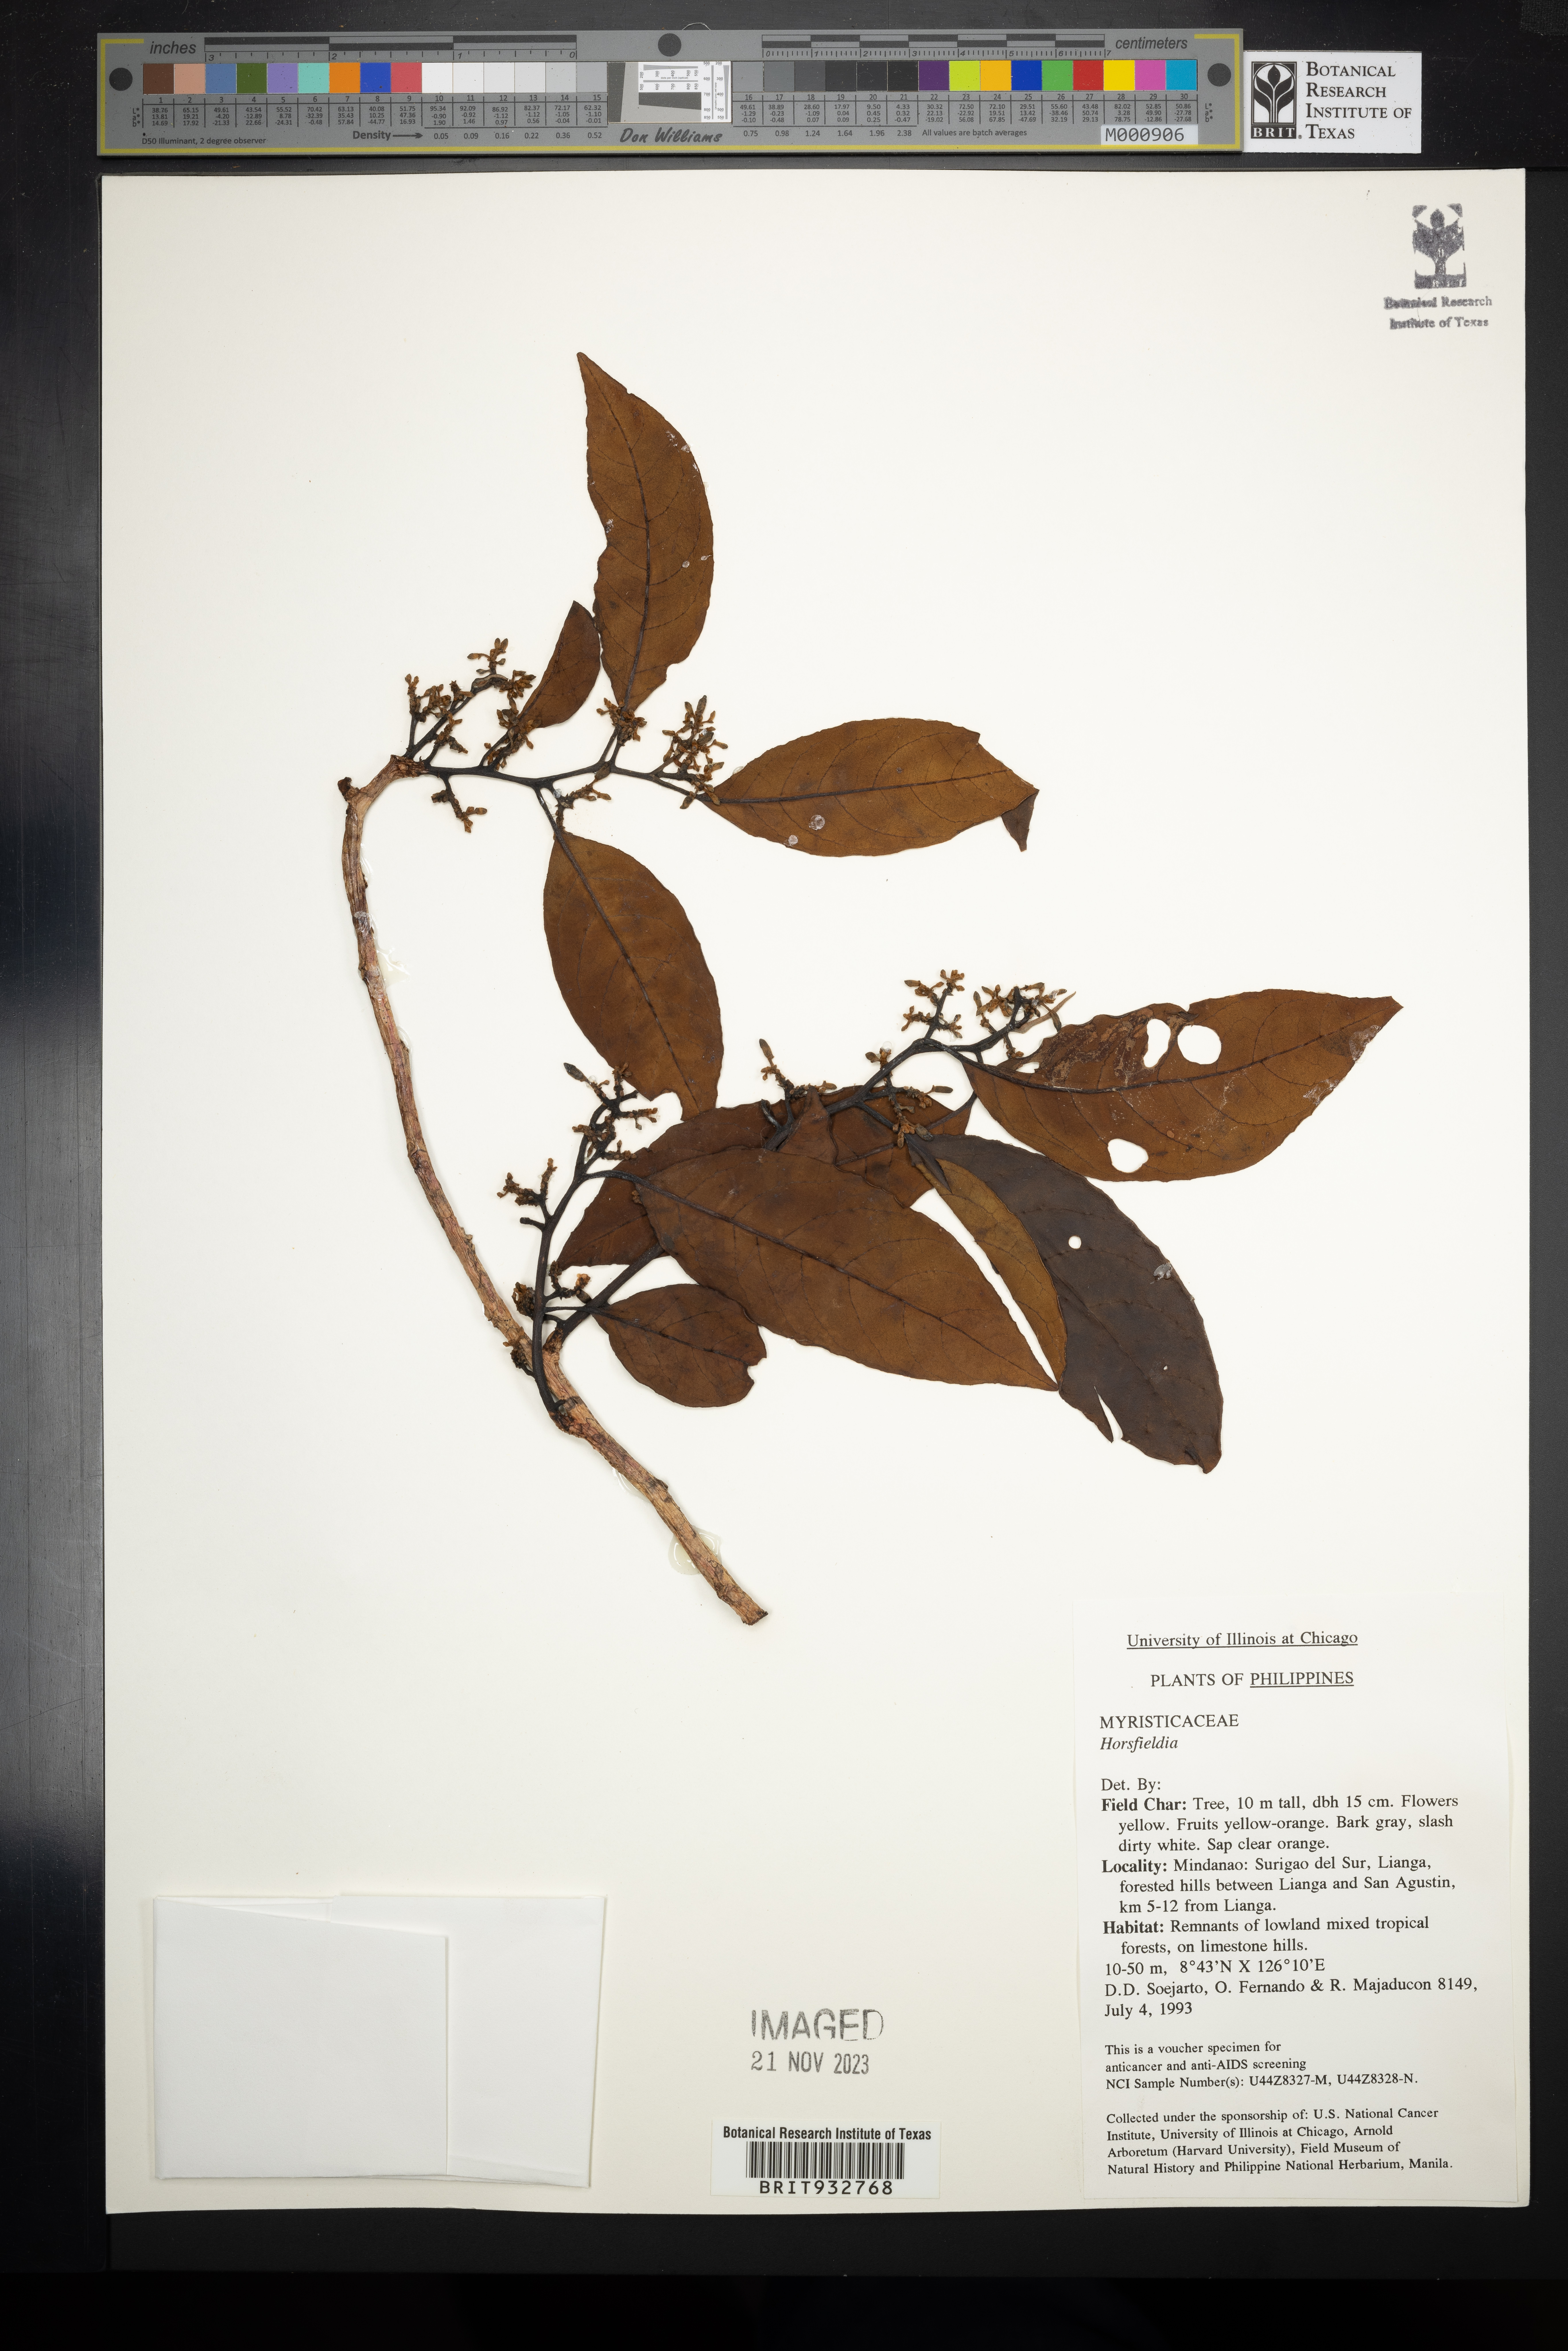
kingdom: Plantae
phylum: Tracheophyta
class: Magnoliopsida
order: Magnoliales
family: Myristicaceae
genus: Horsfieldia
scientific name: Horsfieldia
